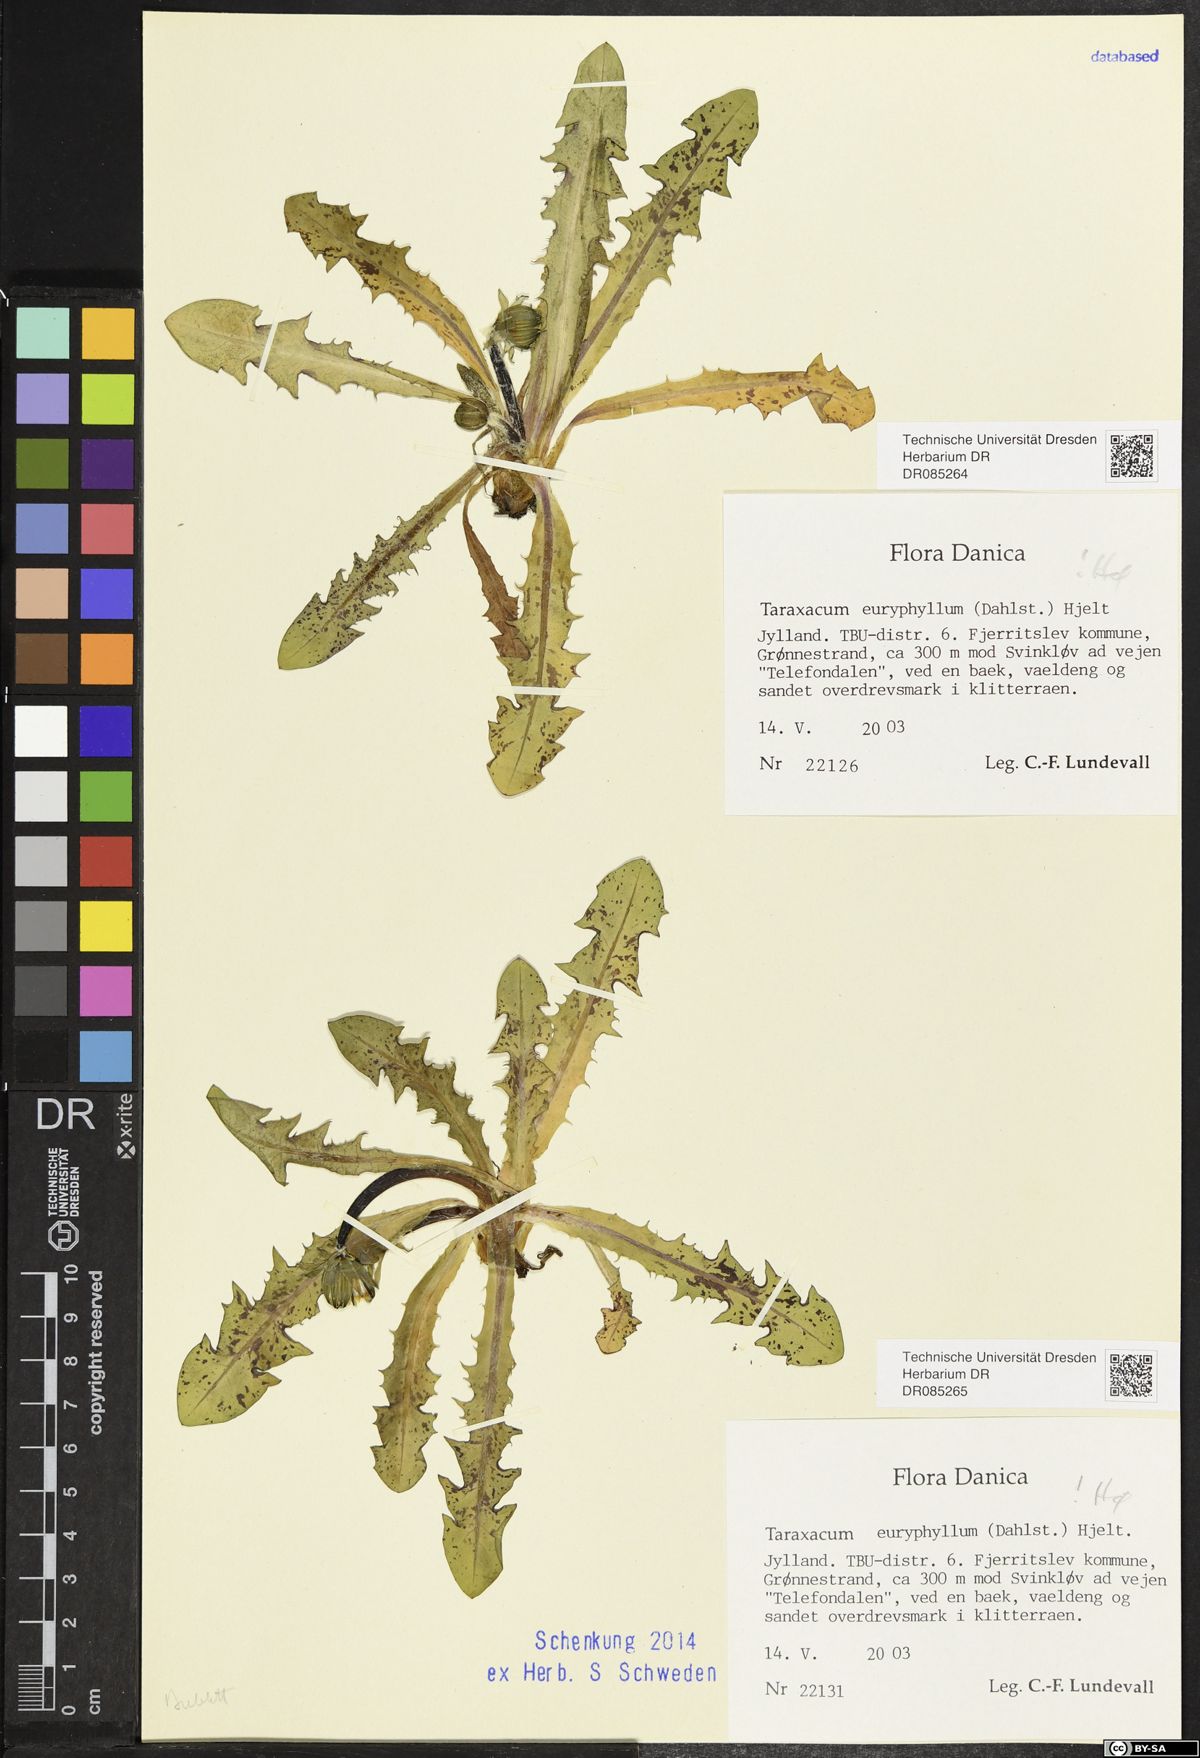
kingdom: Plantae
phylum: Tracheophyta
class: Magnoliopsida
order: Asterales
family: Asteraceae
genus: Taraxacum
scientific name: Taraxacum euryphyllum
